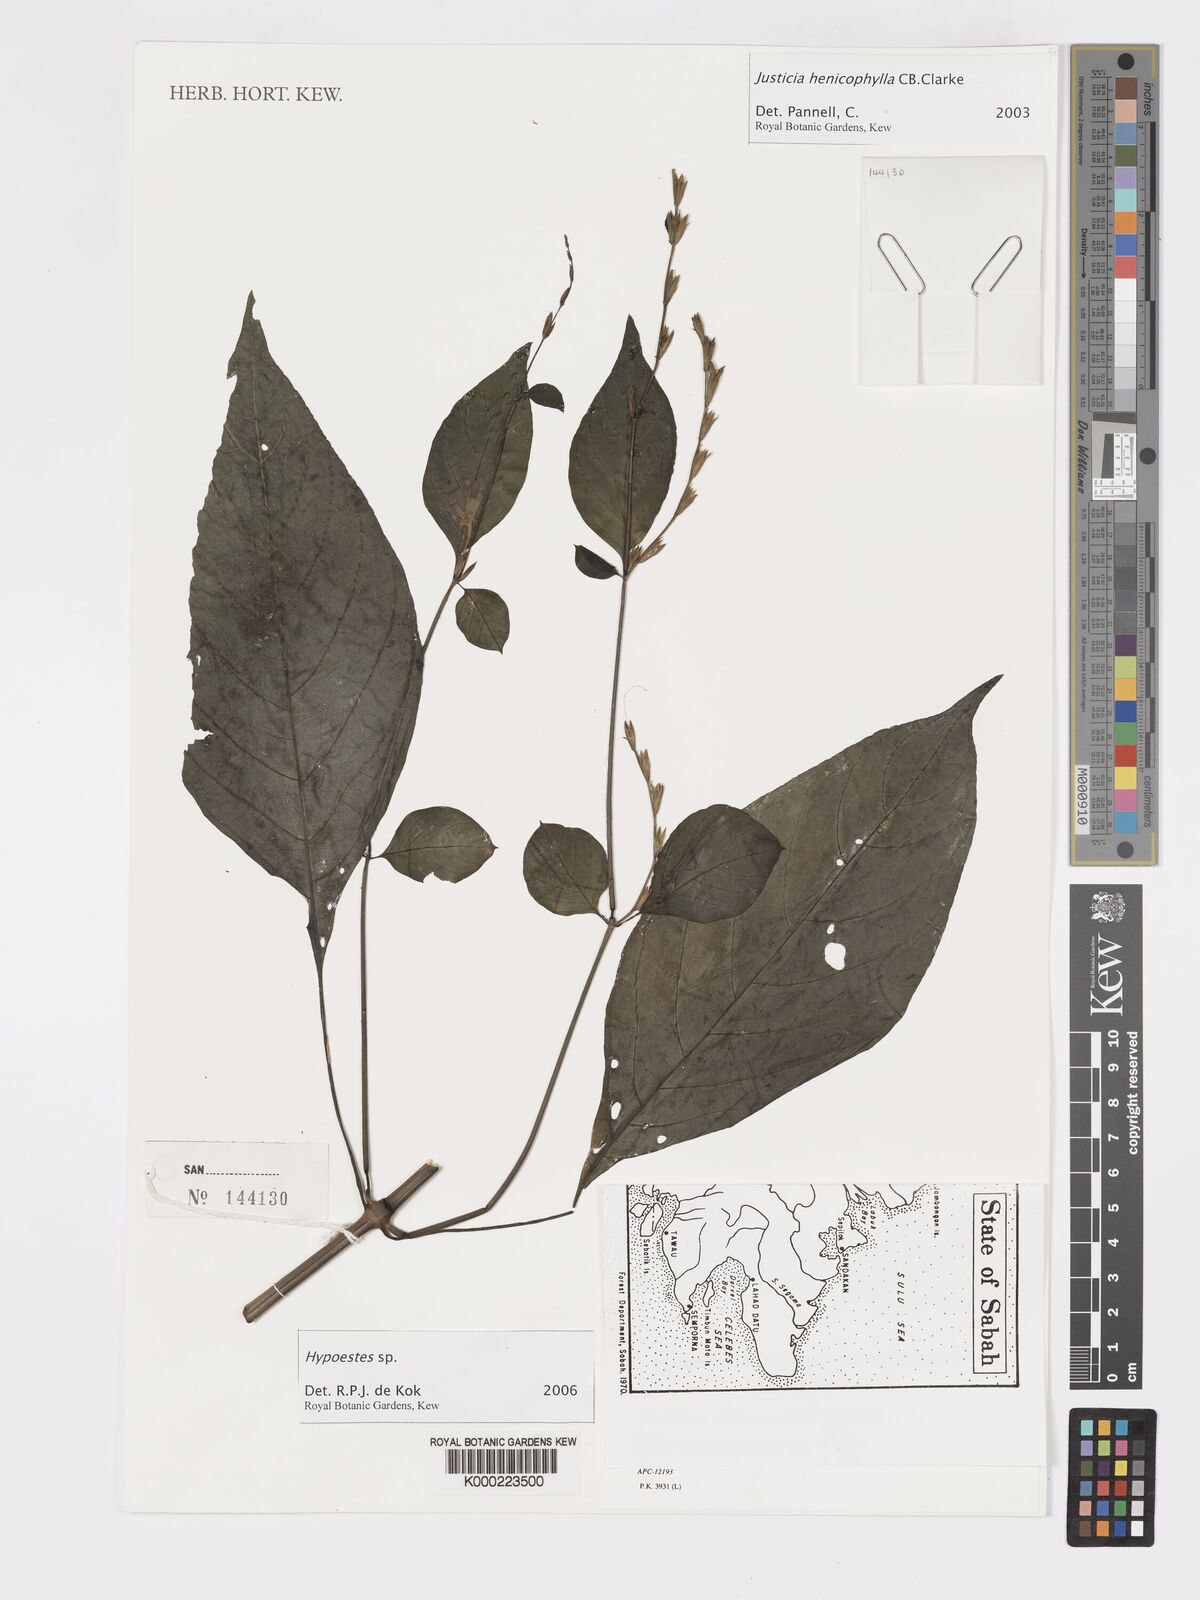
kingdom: Plantae
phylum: Tracheophyta
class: Magnoliopsida
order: Lamiales
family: Acanthaceae
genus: Hypoestes
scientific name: Hypoestes
